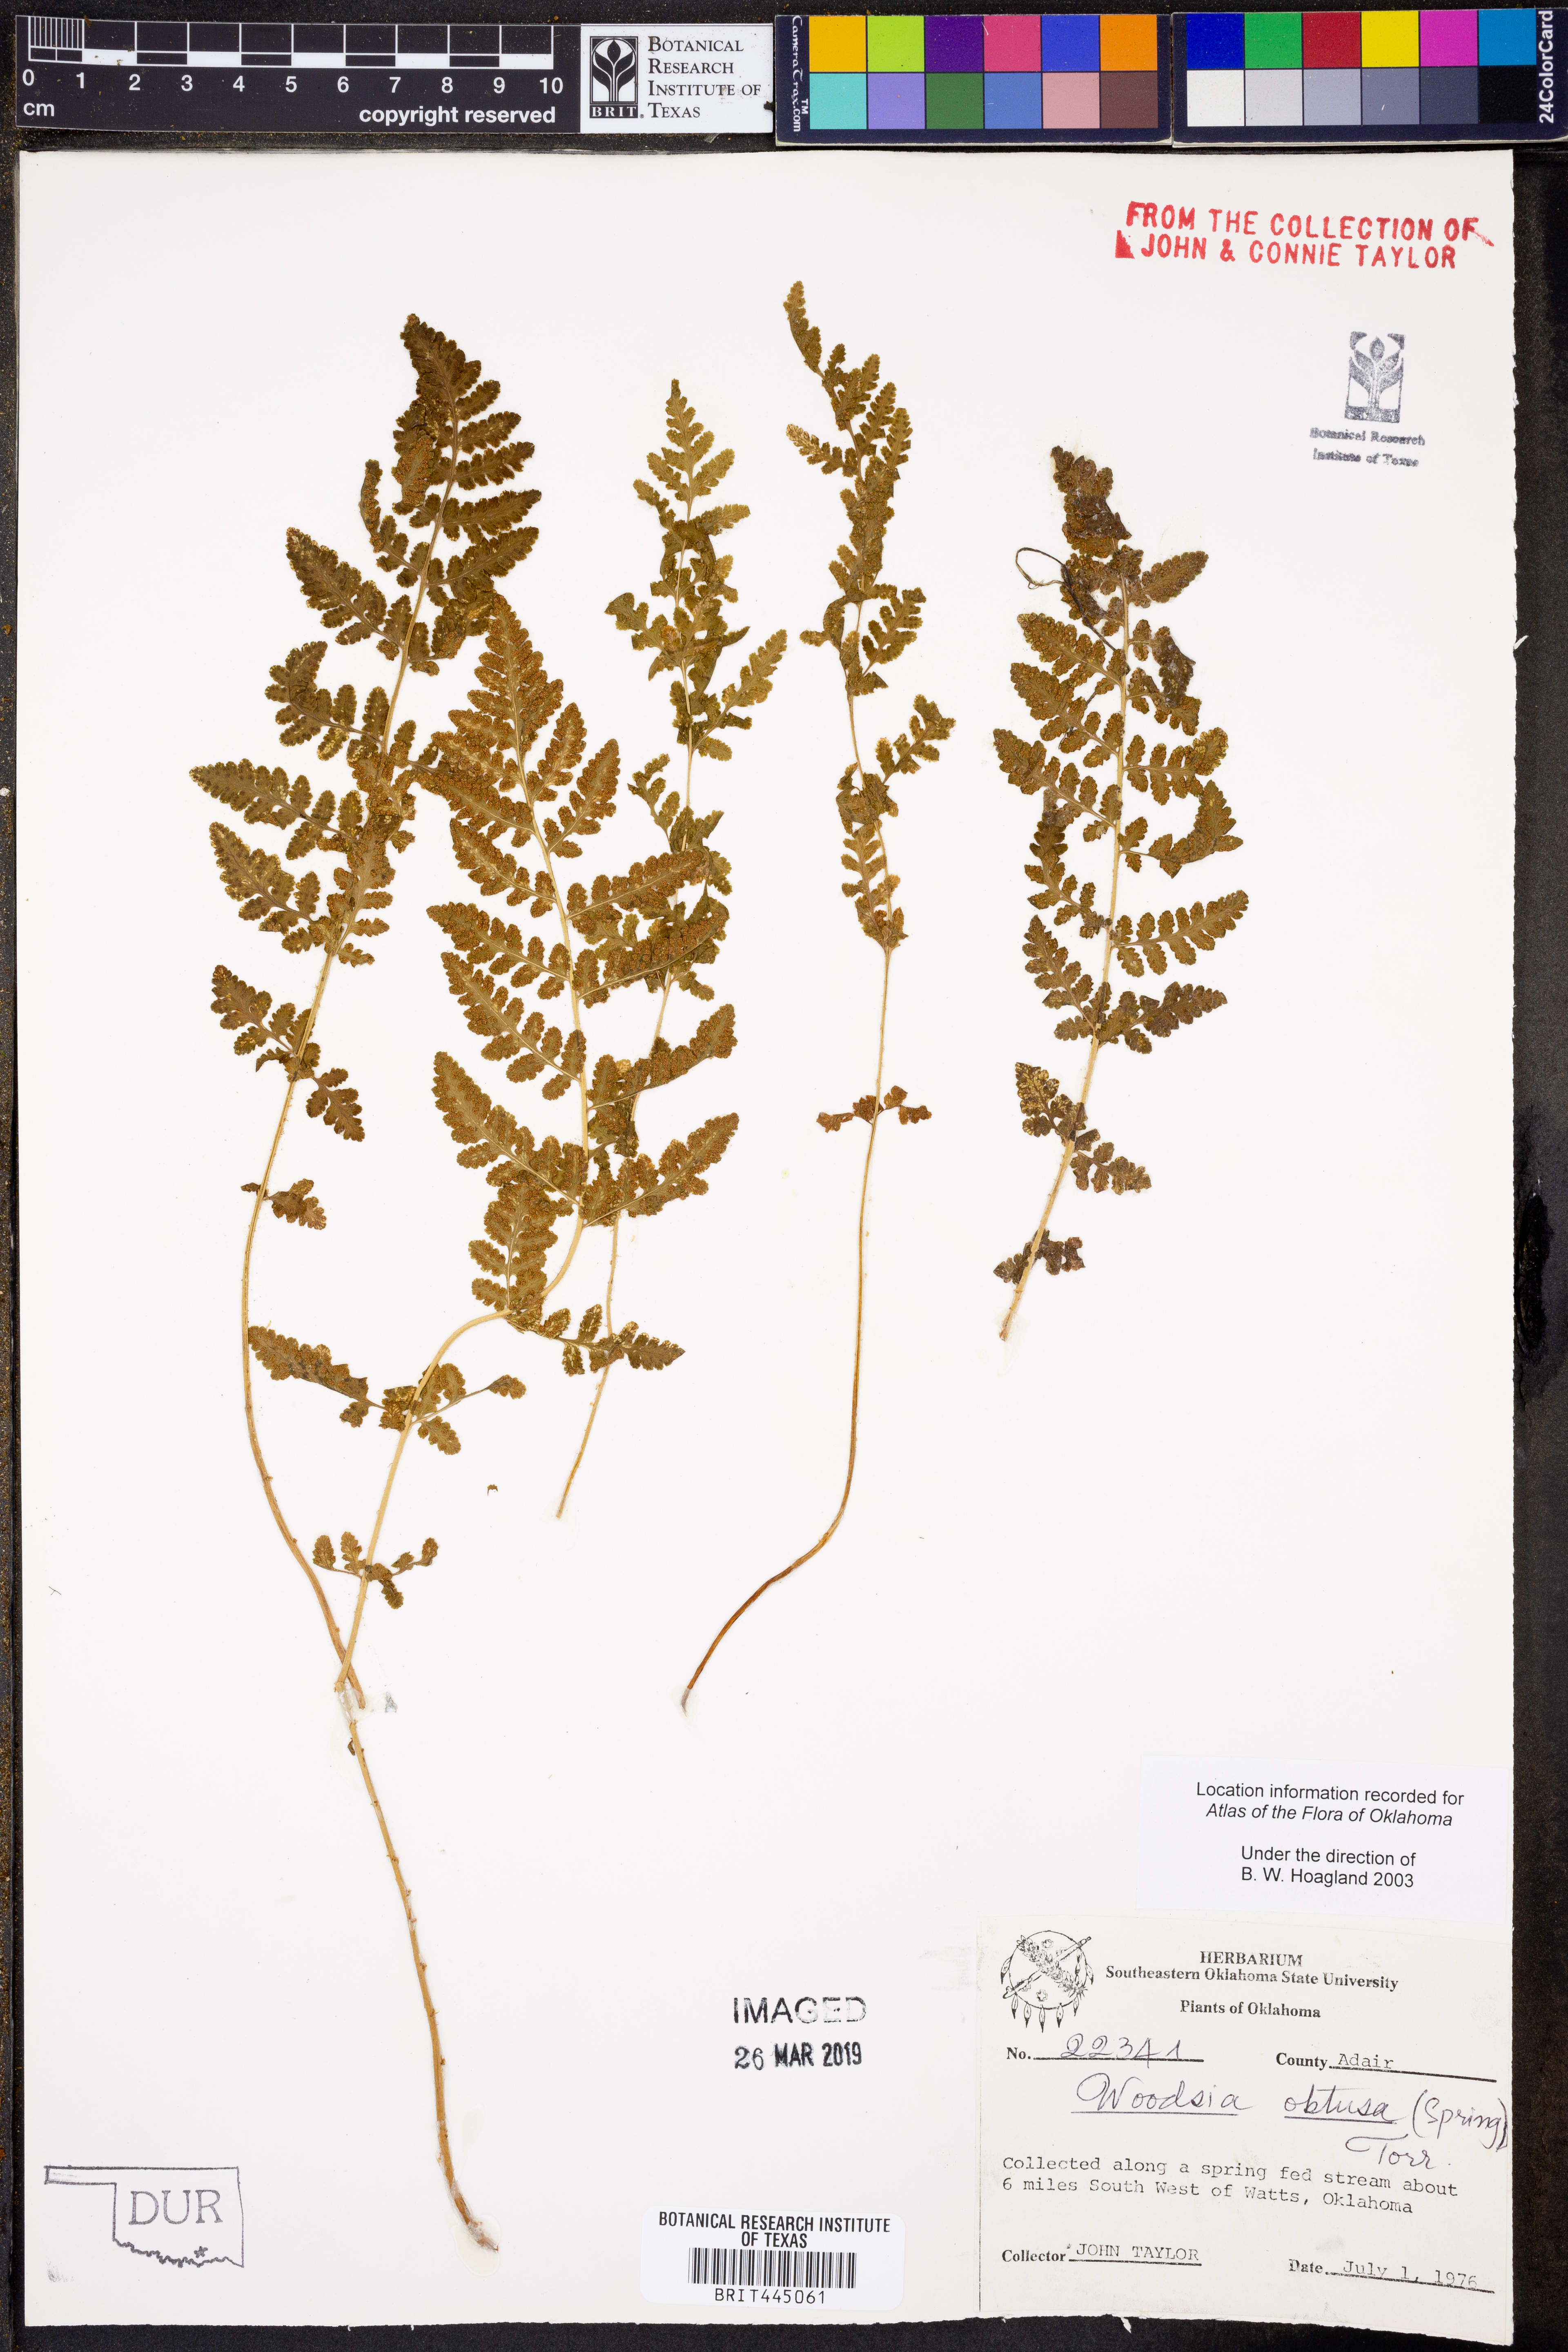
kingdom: Plantae
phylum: Tracheophyta
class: Polypodiopsida
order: Polypodiales
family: Woodsiaceae
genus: Physematium
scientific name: Physematium obtusum
